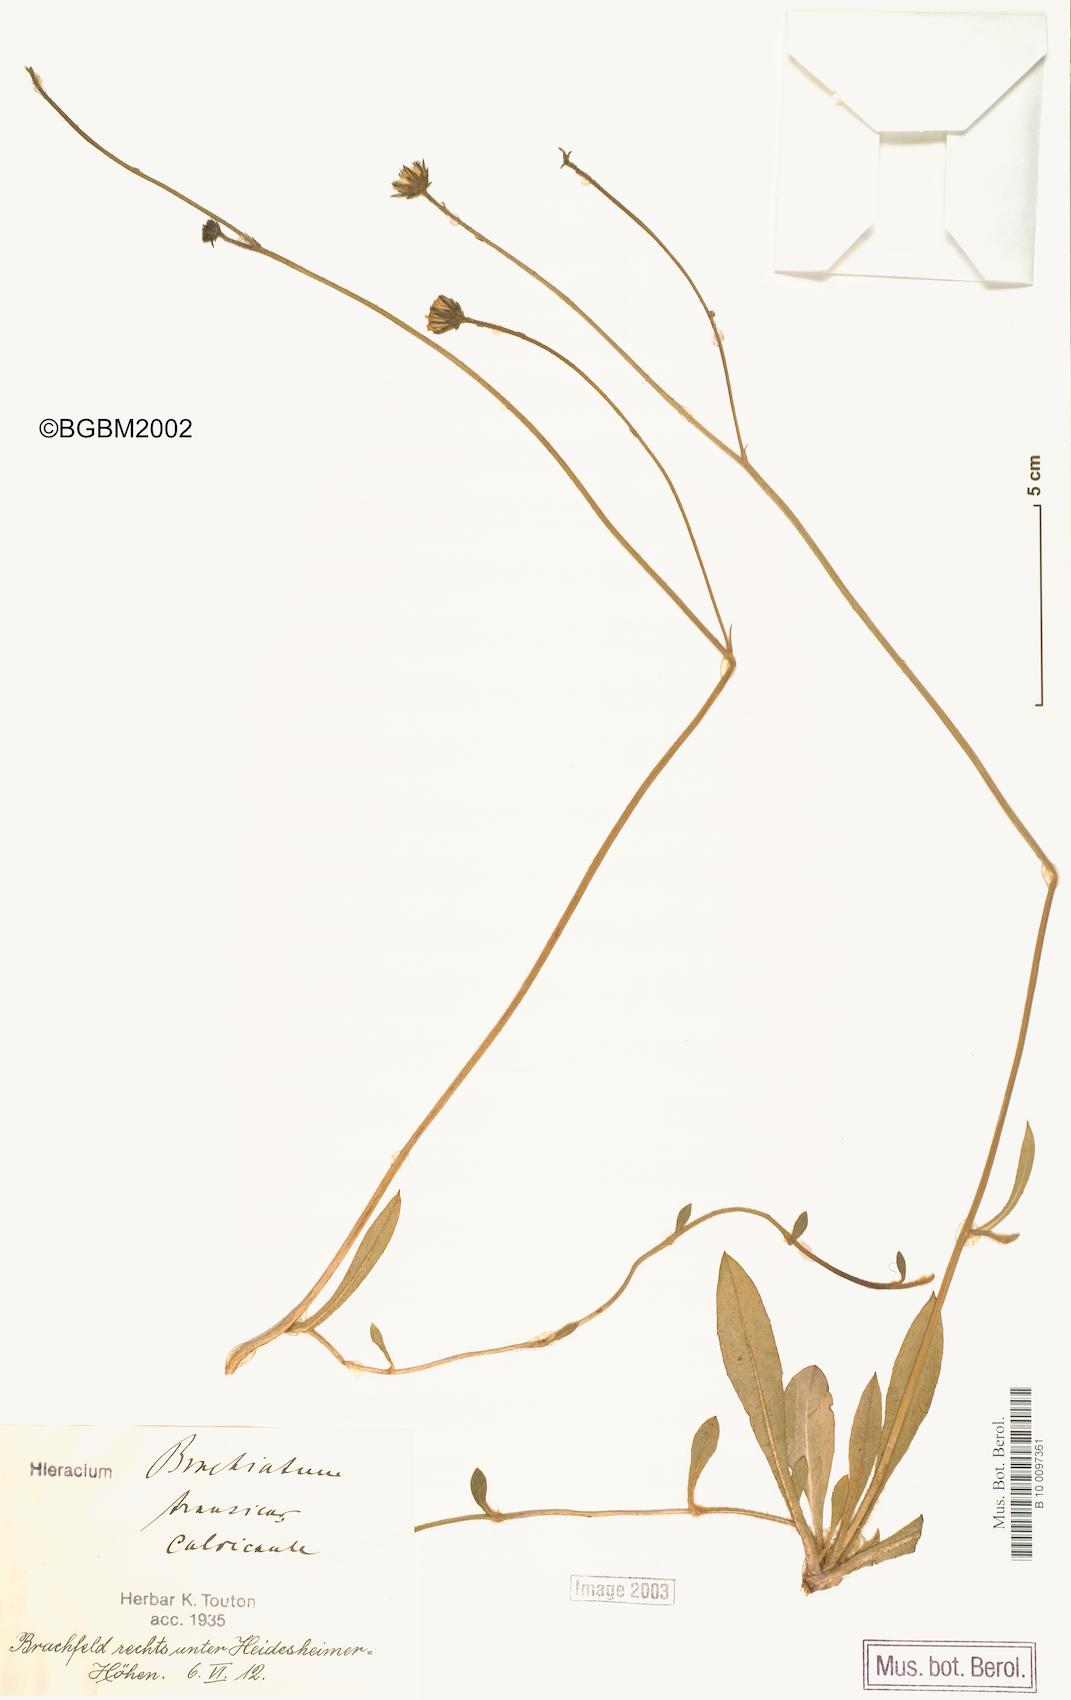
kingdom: Plantae
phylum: Tracheophyta
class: Magnoliopsida
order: Asterales
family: Asteraceae
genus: Pilosella
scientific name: Pilosella acutifolia
